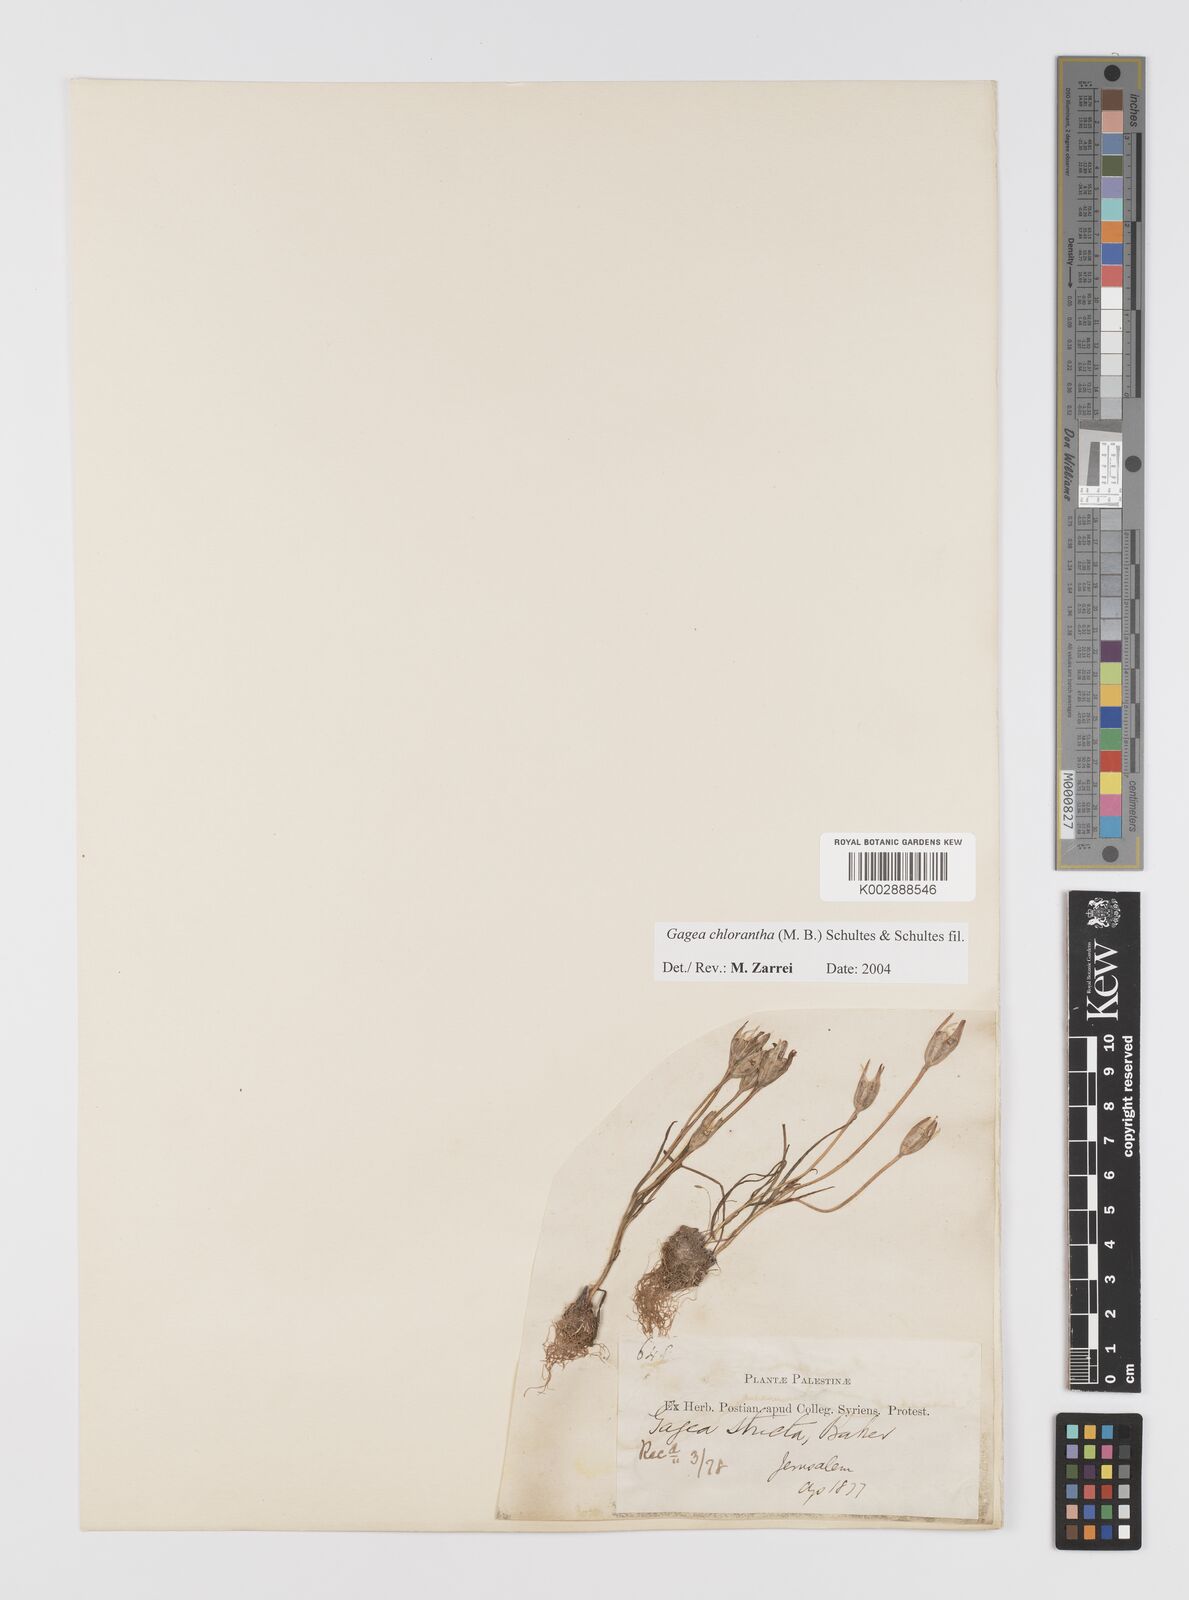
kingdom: Plantae
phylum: Tracheophyta
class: Liliopsida
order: Liliales
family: Liliaceae
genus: Gagea
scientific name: Gagea chlorantha
